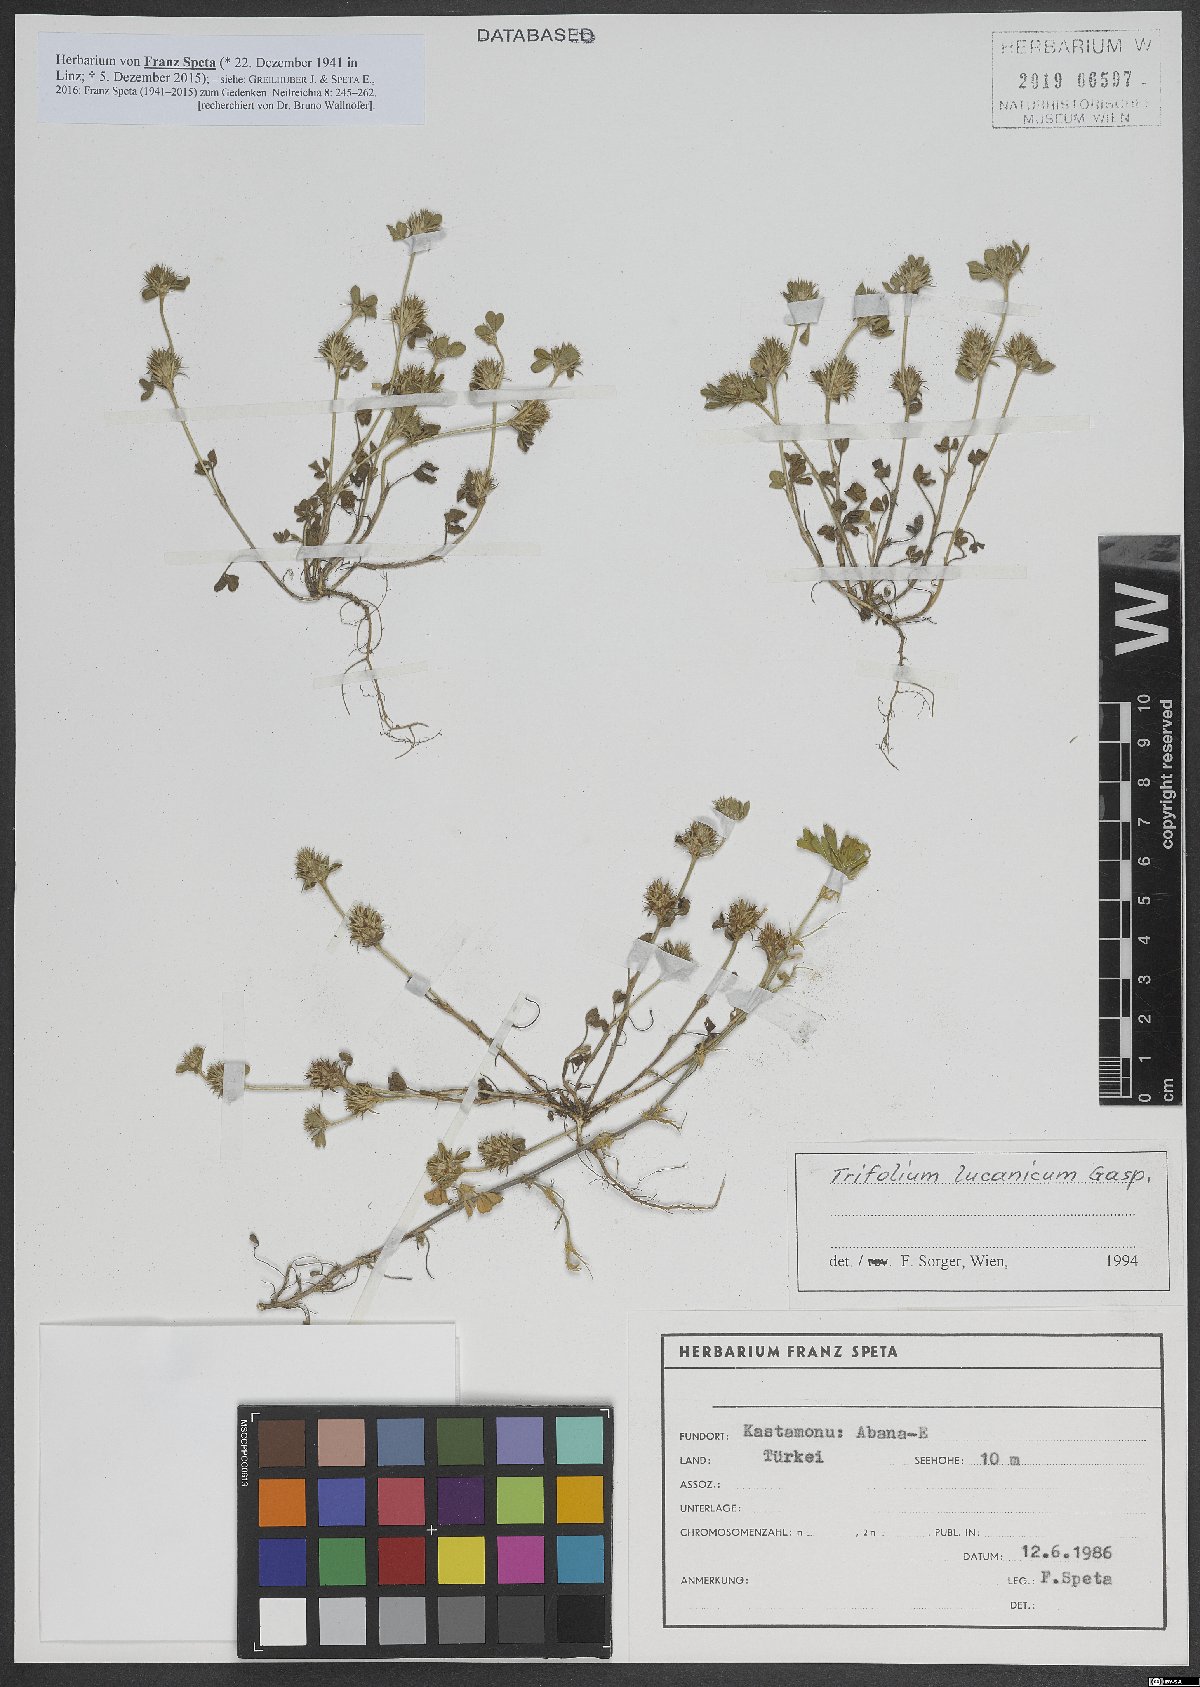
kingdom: Plantae
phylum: Tracheophyta
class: Magnoliopsida
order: Fabales
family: Fabaceae
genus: Trifolium
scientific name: Trifolium lucanicum
